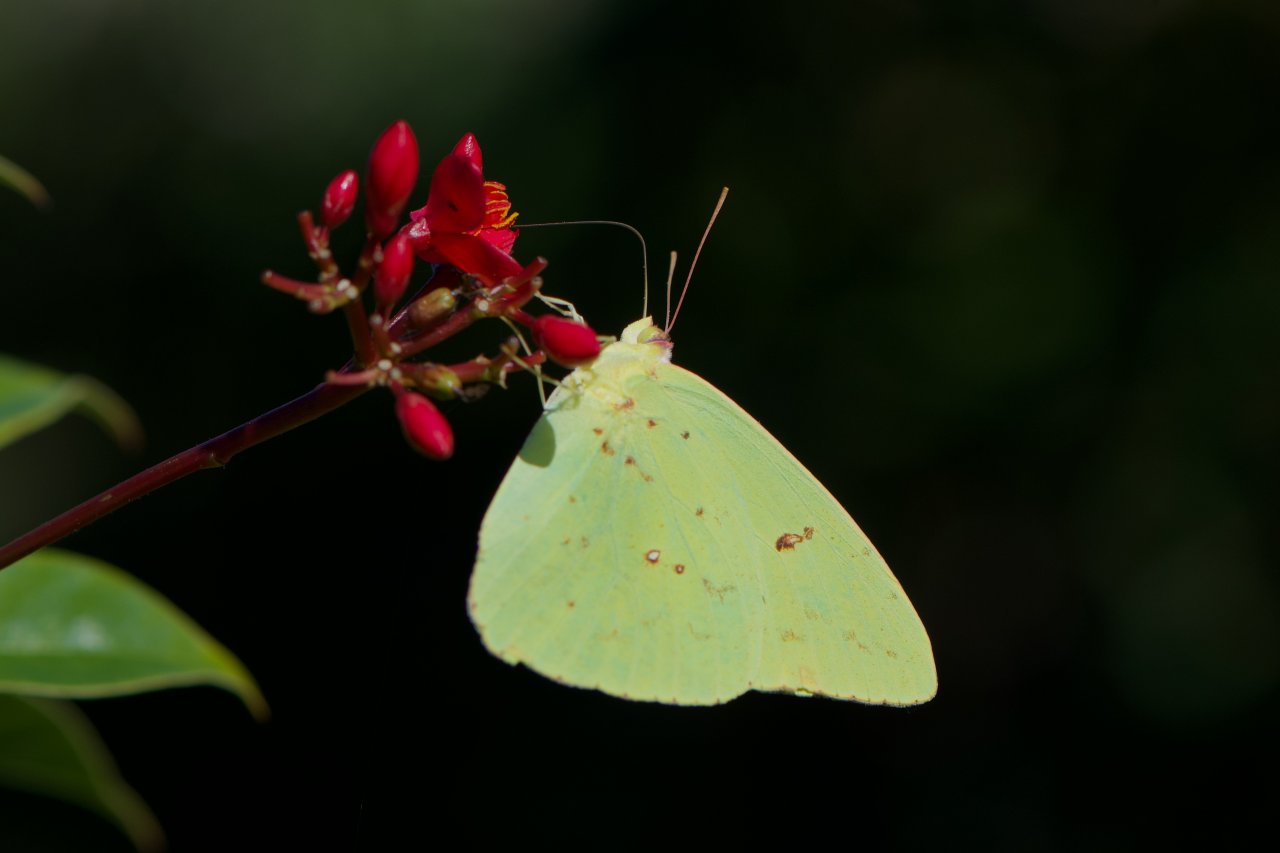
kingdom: Animalia
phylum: Arthropoda
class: Insecta
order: Lepidoptera
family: Pieridae
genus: Phoebis
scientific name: Phoebis sennae
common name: Cloudless Sulphur
